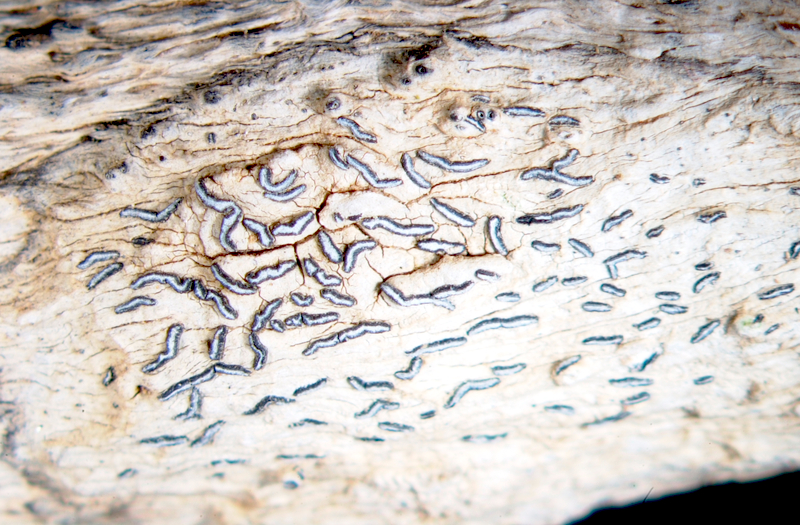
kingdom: Fungi
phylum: Ascomycota
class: Arthoniomycetes
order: Arthoniales
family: Opegraphaceae
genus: Opegrapha
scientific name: Opegrapha
